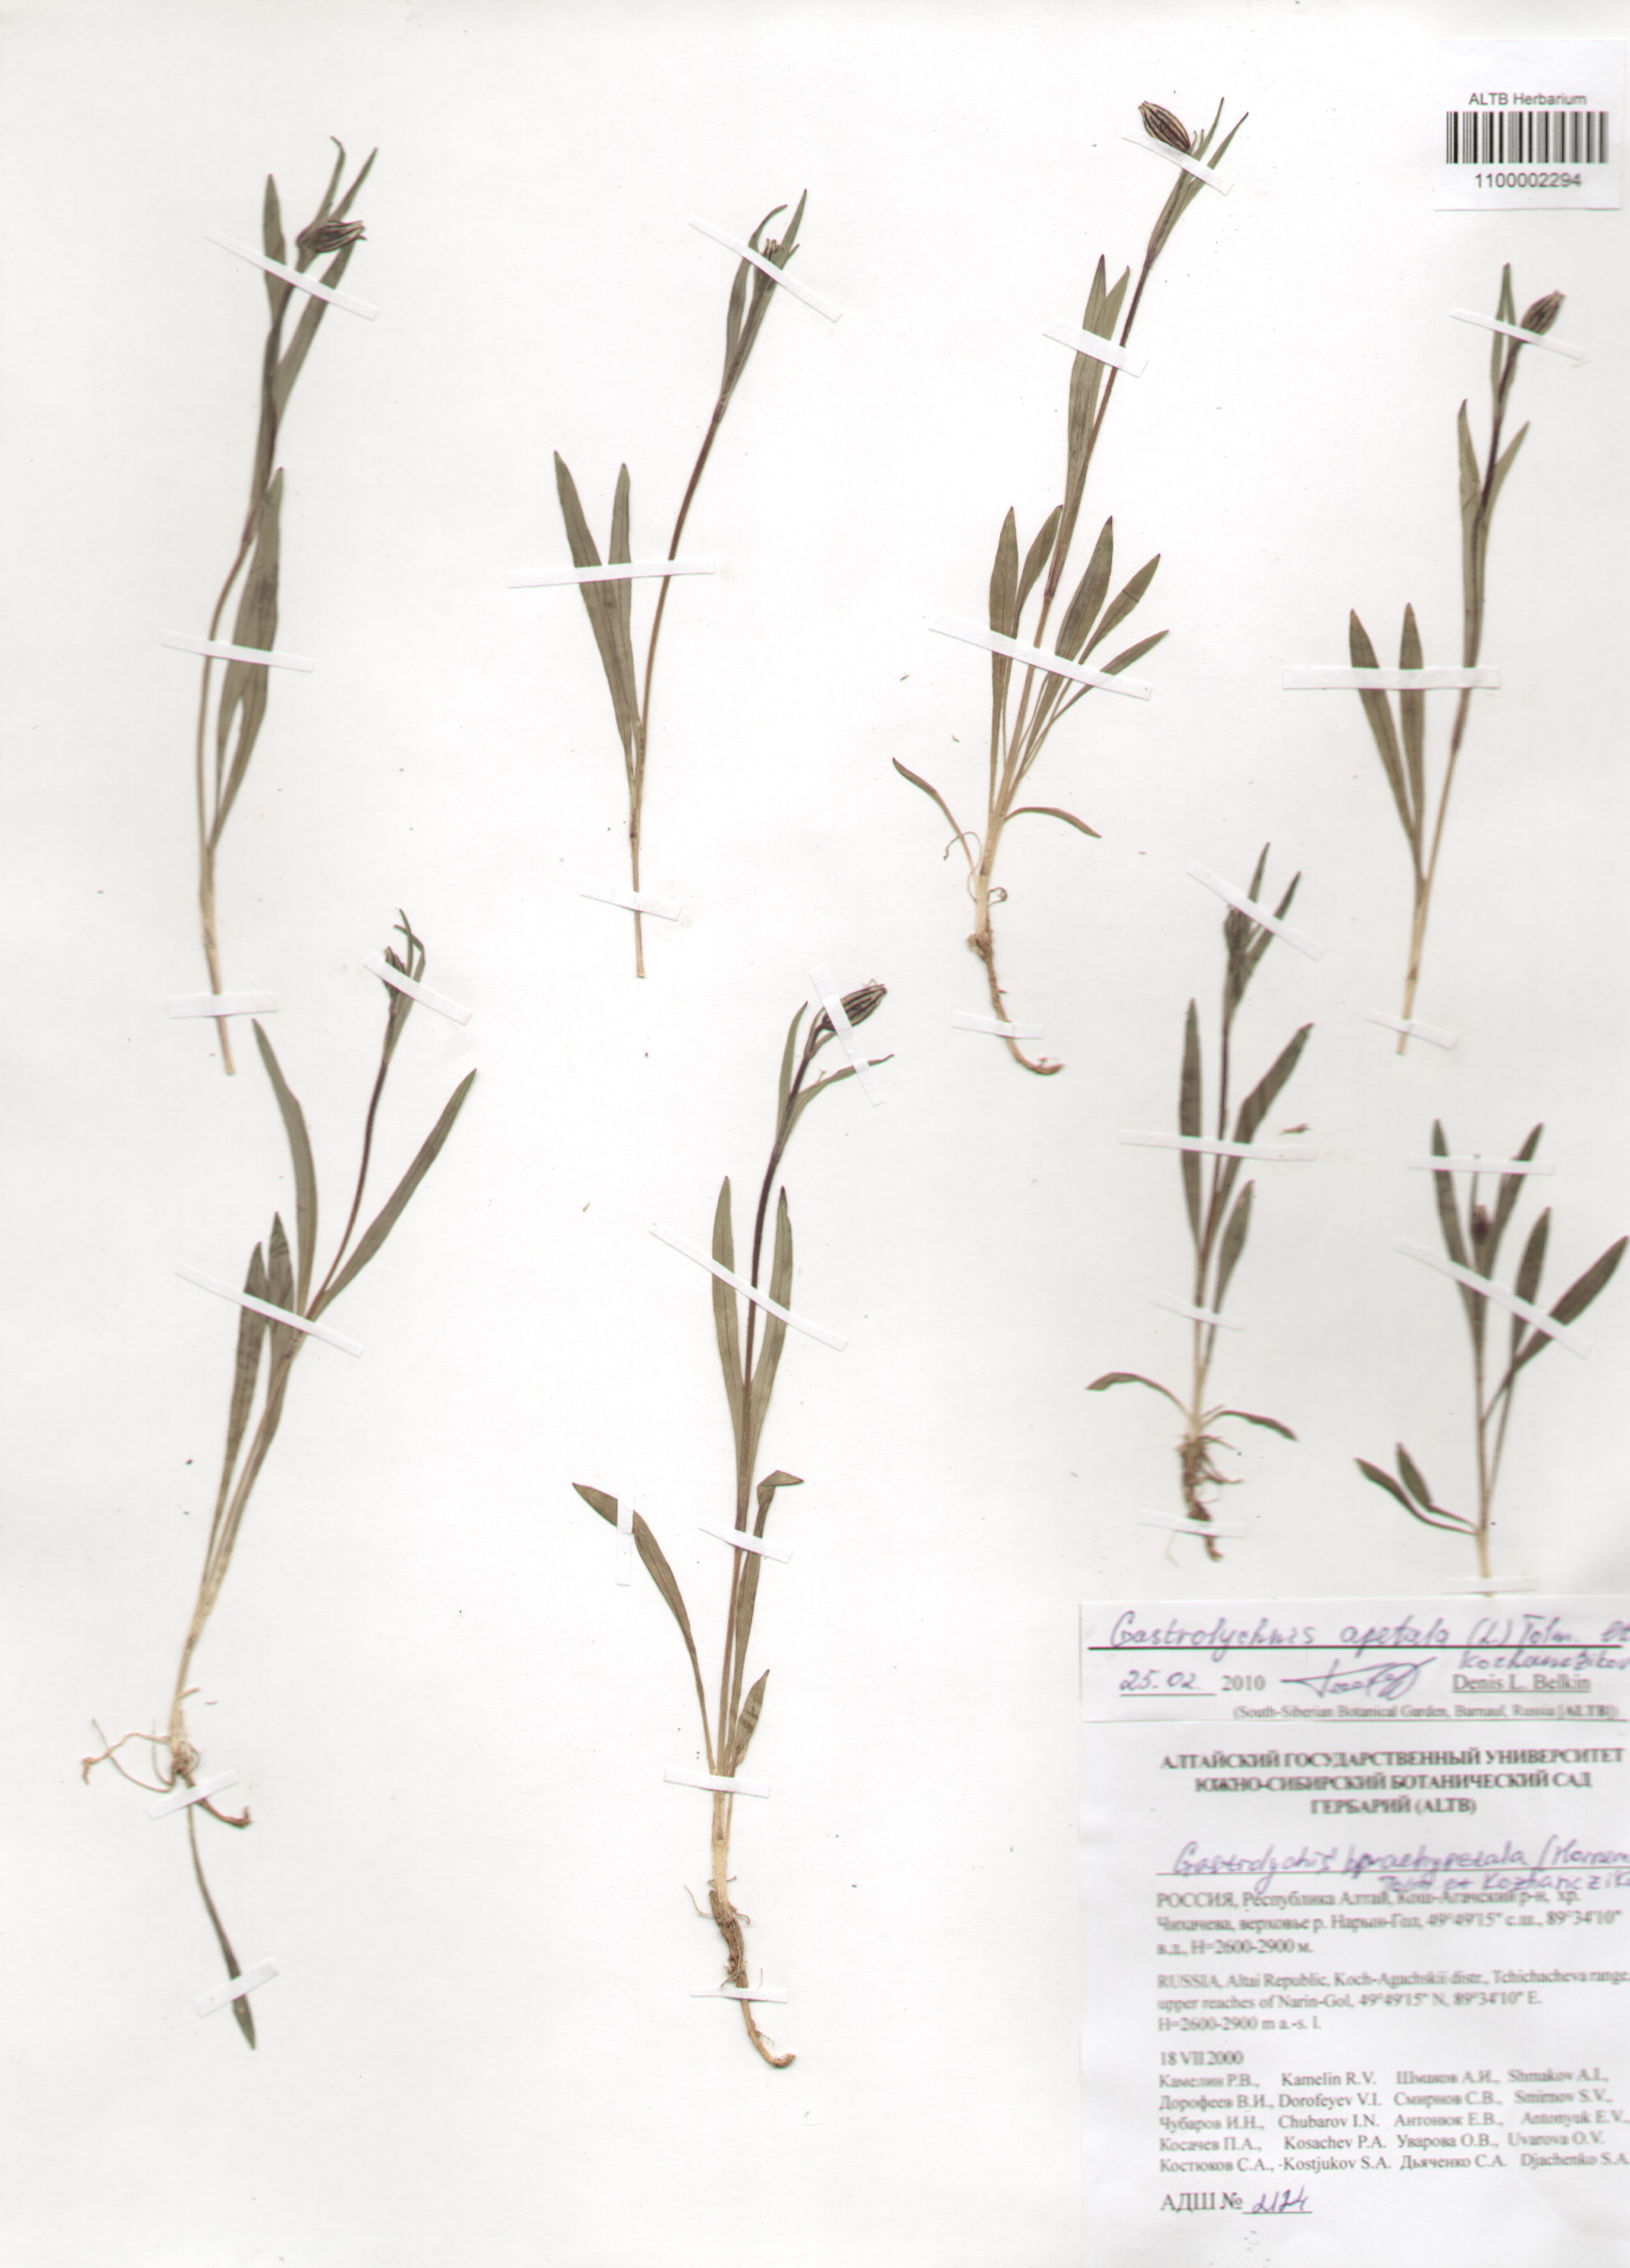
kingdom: Plantae
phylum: Tracheophyta
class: Magnoliopsida
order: Caryophyllales
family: Caryophyllaceae
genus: Silene
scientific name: Silene wahlbergella
